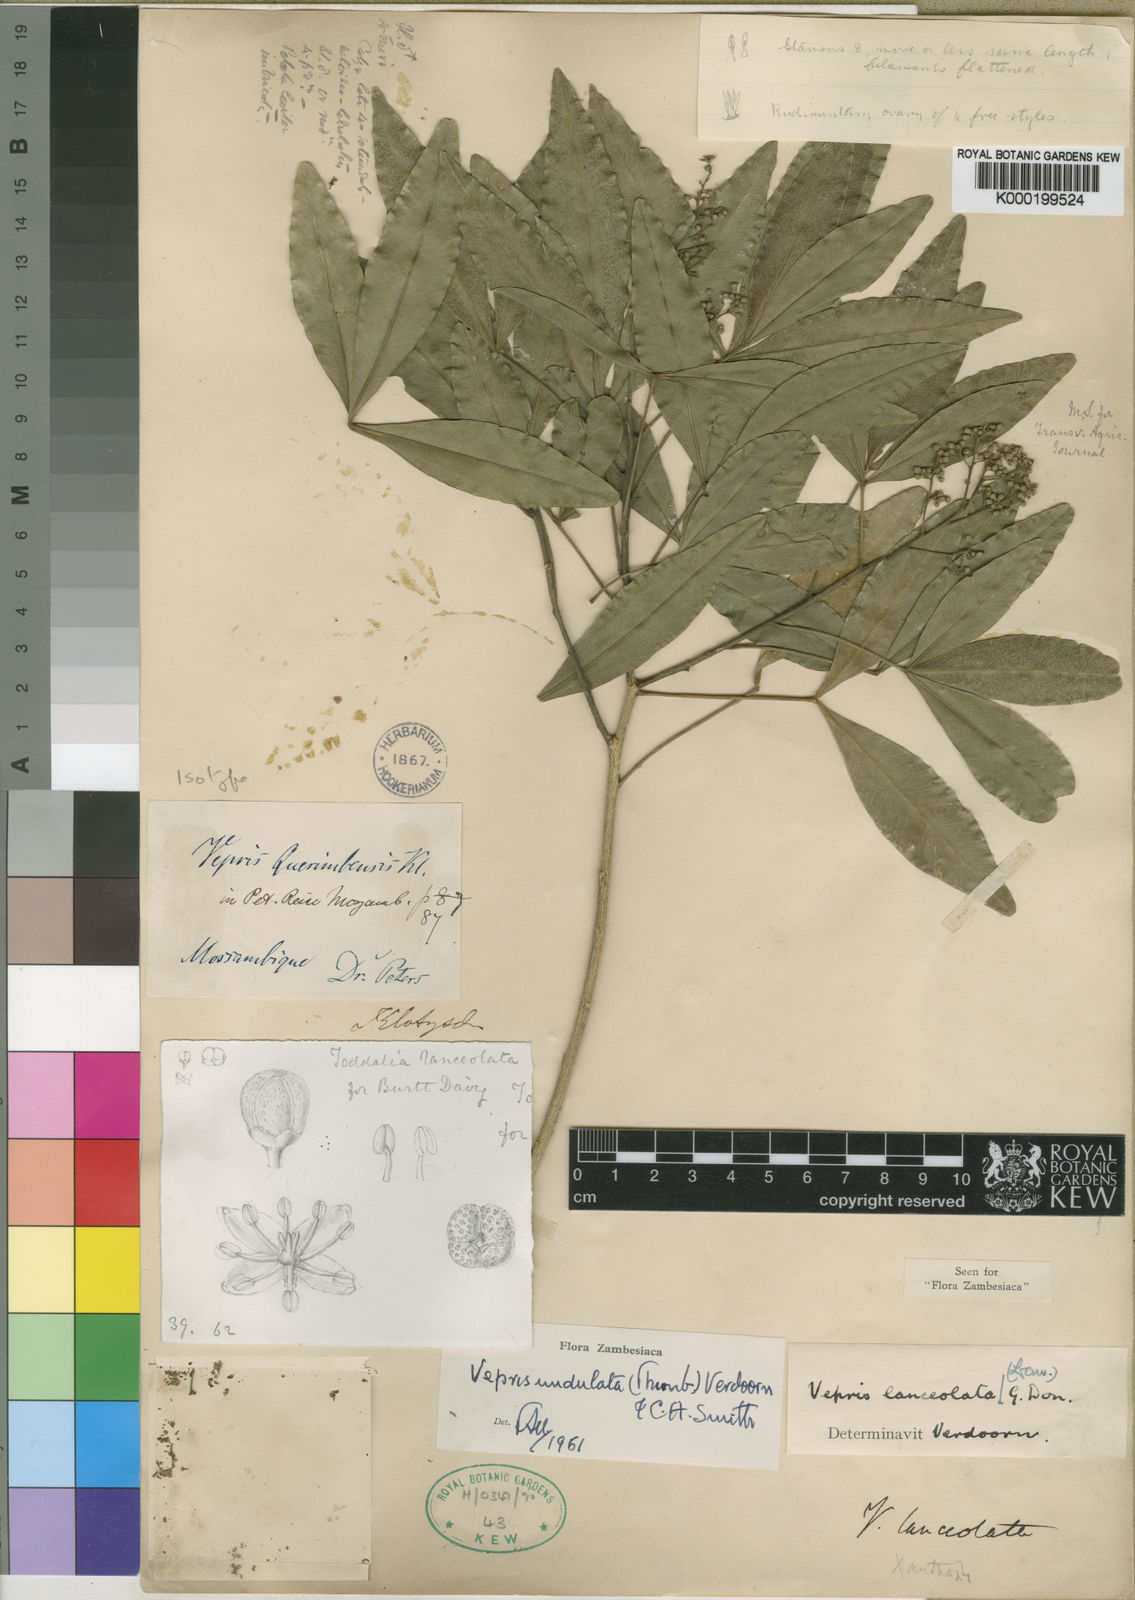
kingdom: Plantae
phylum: Tracheophyta
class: Magnoliopsida
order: Sapindales
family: Rutaceae
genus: Vepris
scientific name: Vepris lanceolata
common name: White ironwood
